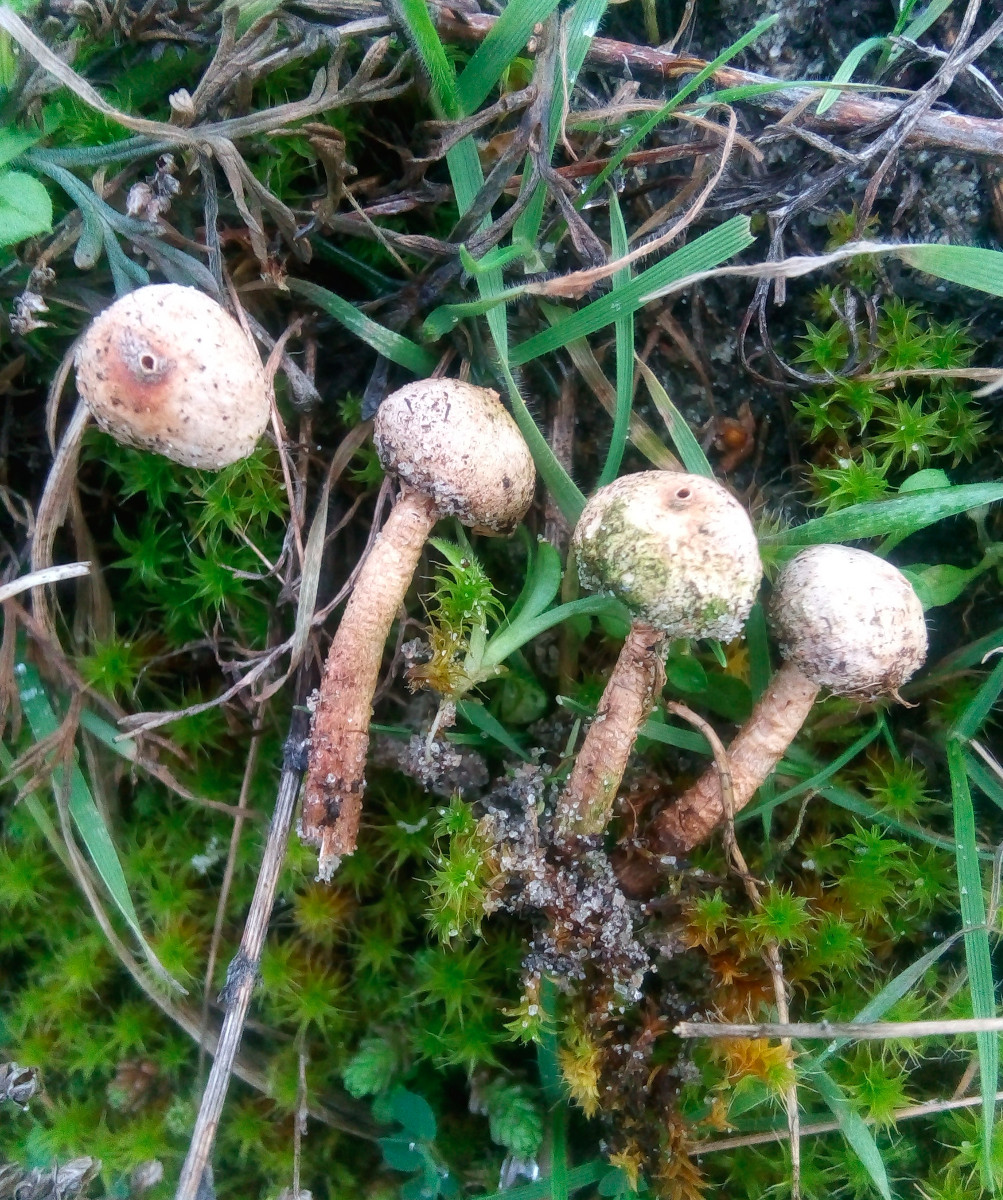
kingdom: Fungi
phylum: Basidiomycota
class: Agaricomycetes
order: Agaricales
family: Agaricaceae
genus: Tulostoma
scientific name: Tulostoma brumale
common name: vinter-stilkbovist
